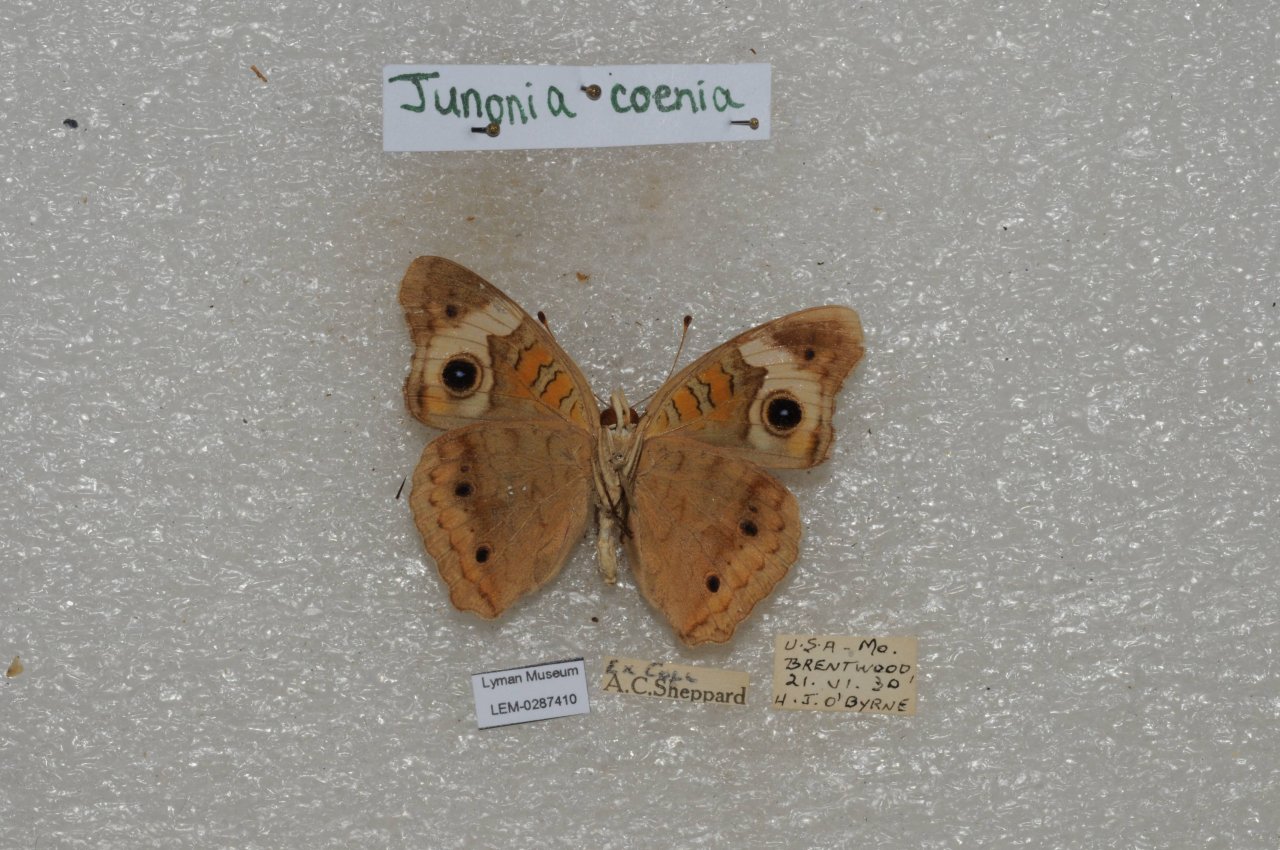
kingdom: Animalia
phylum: Arthropoda
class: Insecta
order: Lepidoptera
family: Nymphalidae
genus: Junonia
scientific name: Junonia coenia
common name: Common Buckeye
